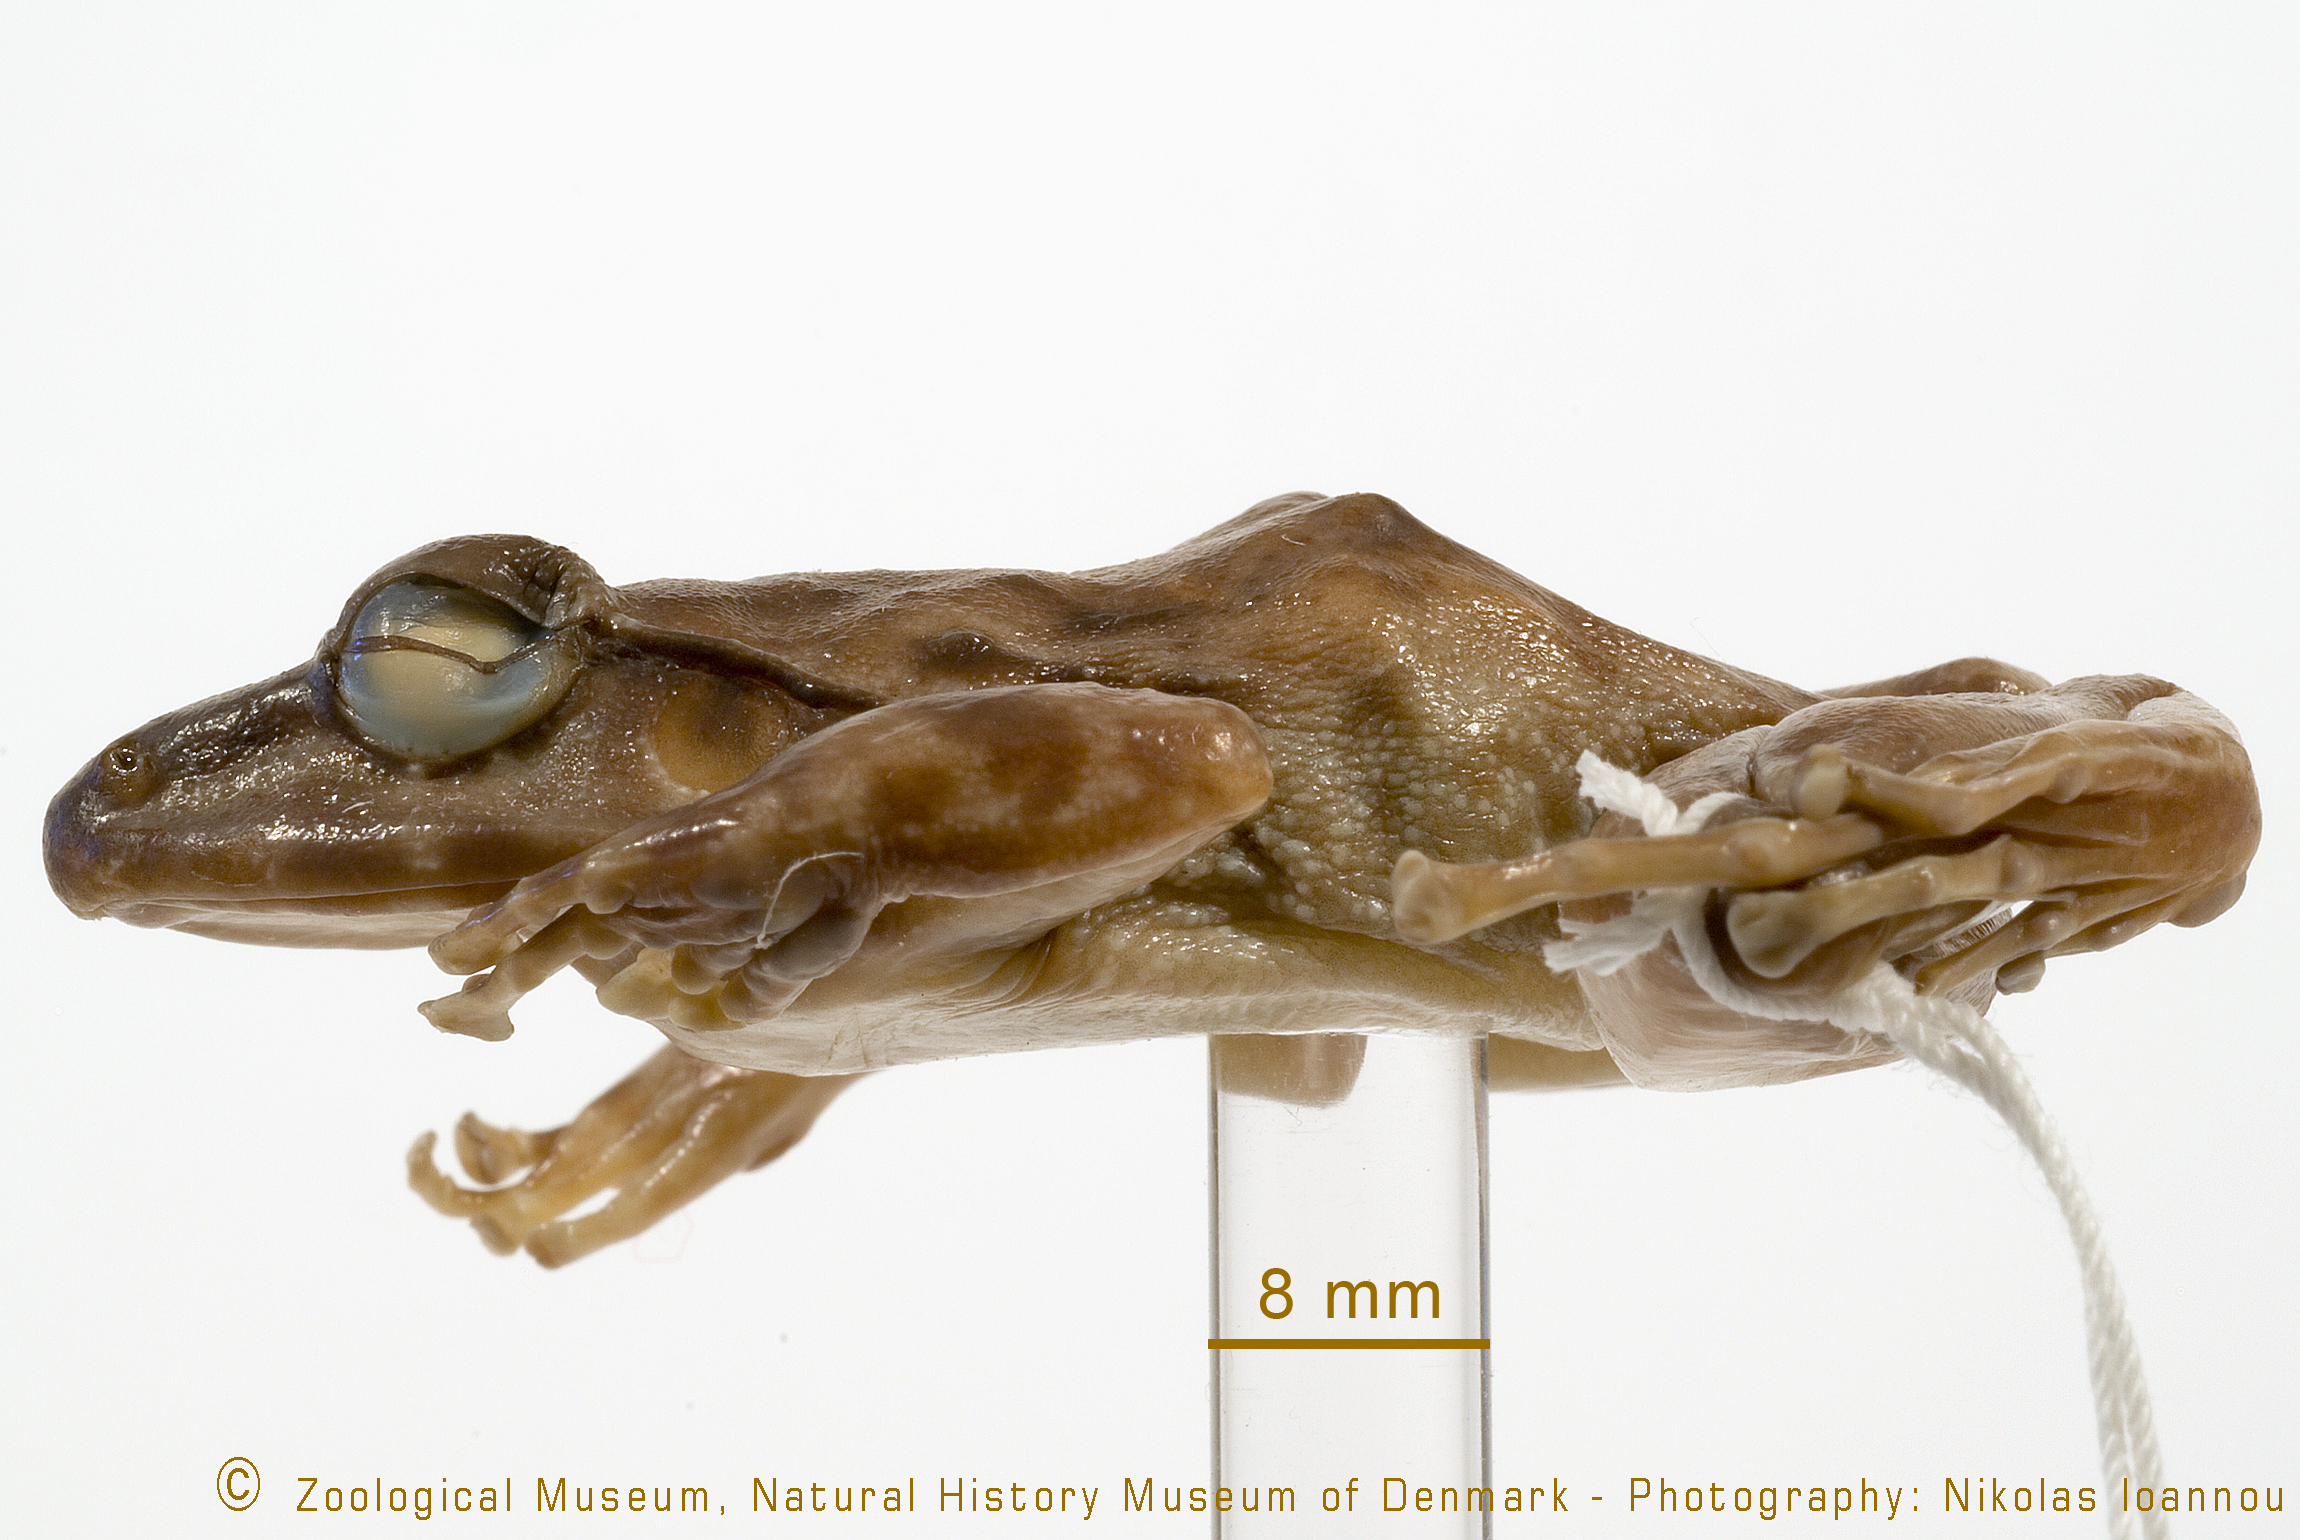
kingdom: Animalia
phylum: Chordata
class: Amphibia
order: Anura
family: Petropedetidae
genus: Arthroleptides
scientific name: Arthroleptides martiensseni
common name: Usambara torrent frog
